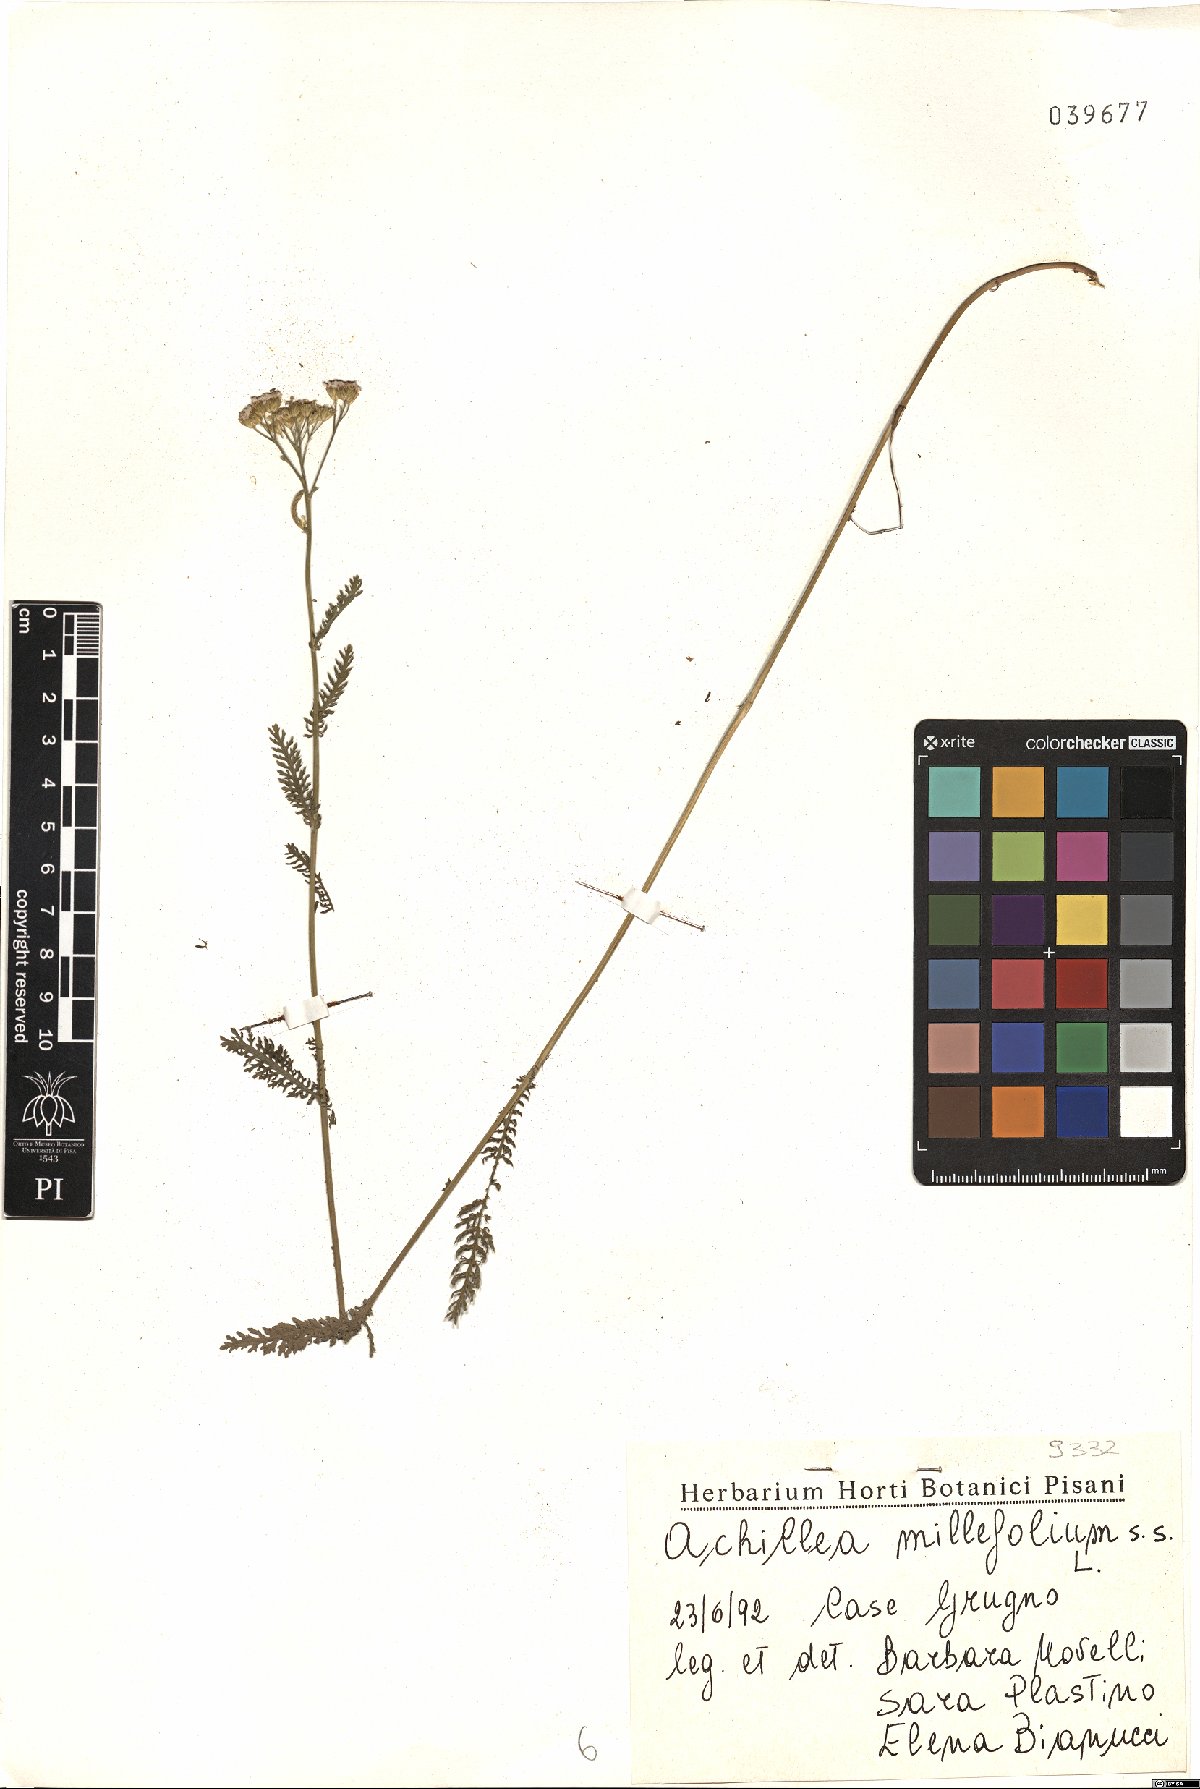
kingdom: Plantae
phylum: Tracheophyta
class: Magnoliopsida
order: Asterales
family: Asteraceae
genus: Achillea
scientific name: Achillea millefolium
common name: Yarrow
